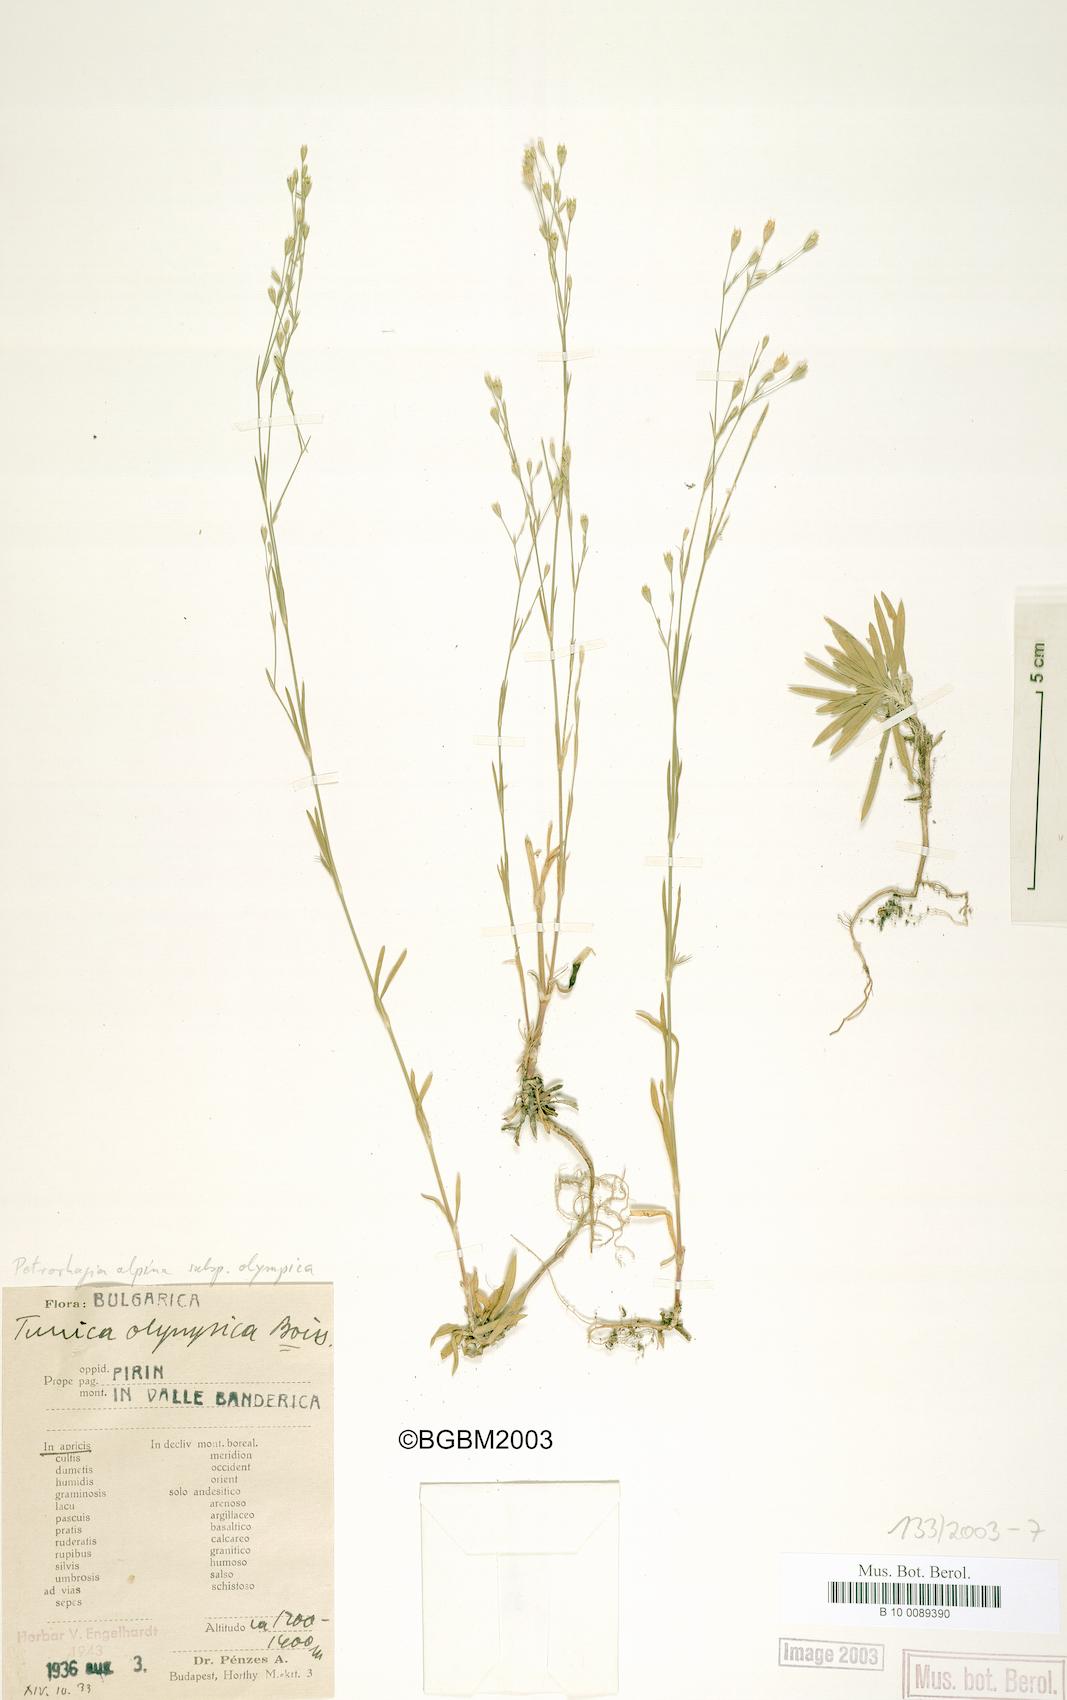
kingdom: Plantae
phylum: Tracheophyta
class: Magnoliopsida
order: Caryophyllales
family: Caryophyllaceae
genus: Petrorhagia
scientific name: Petrorhagia alpina
